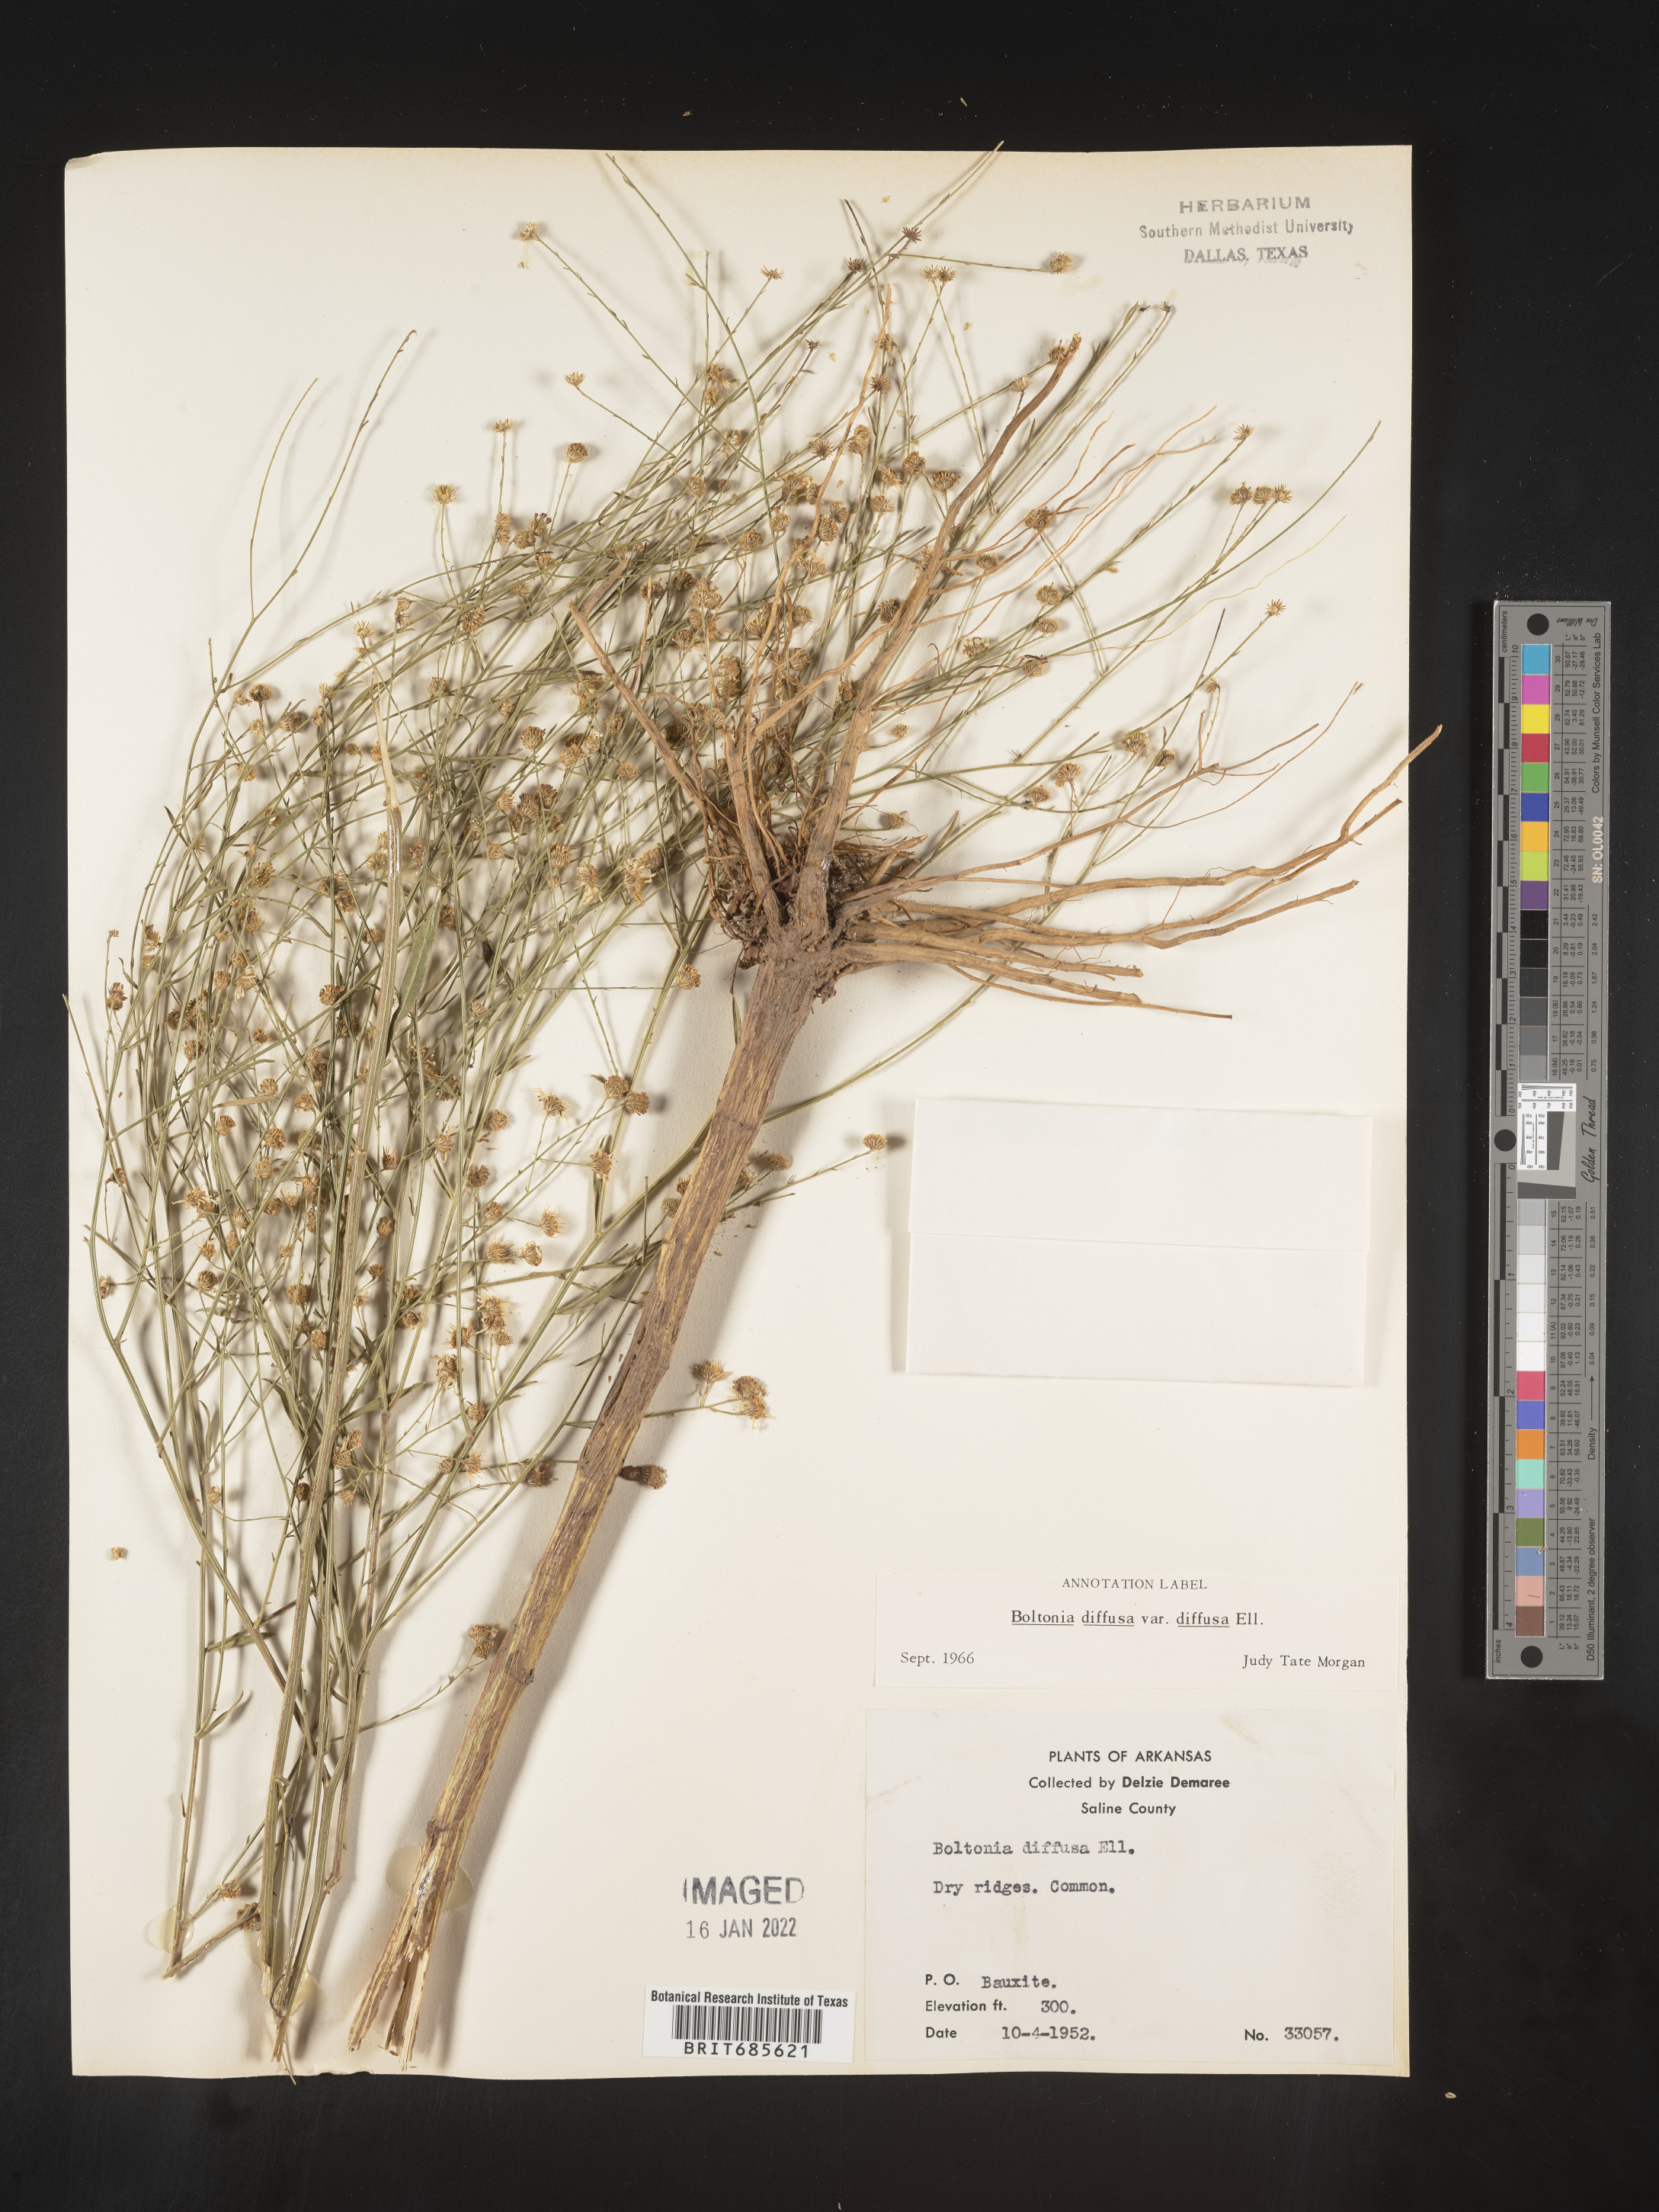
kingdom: Plantae
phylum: Tracheophyta
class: Magnoliopsida
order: Asterales
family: Asteraceae
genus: Boltonia
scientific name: Boltonia diffusa
